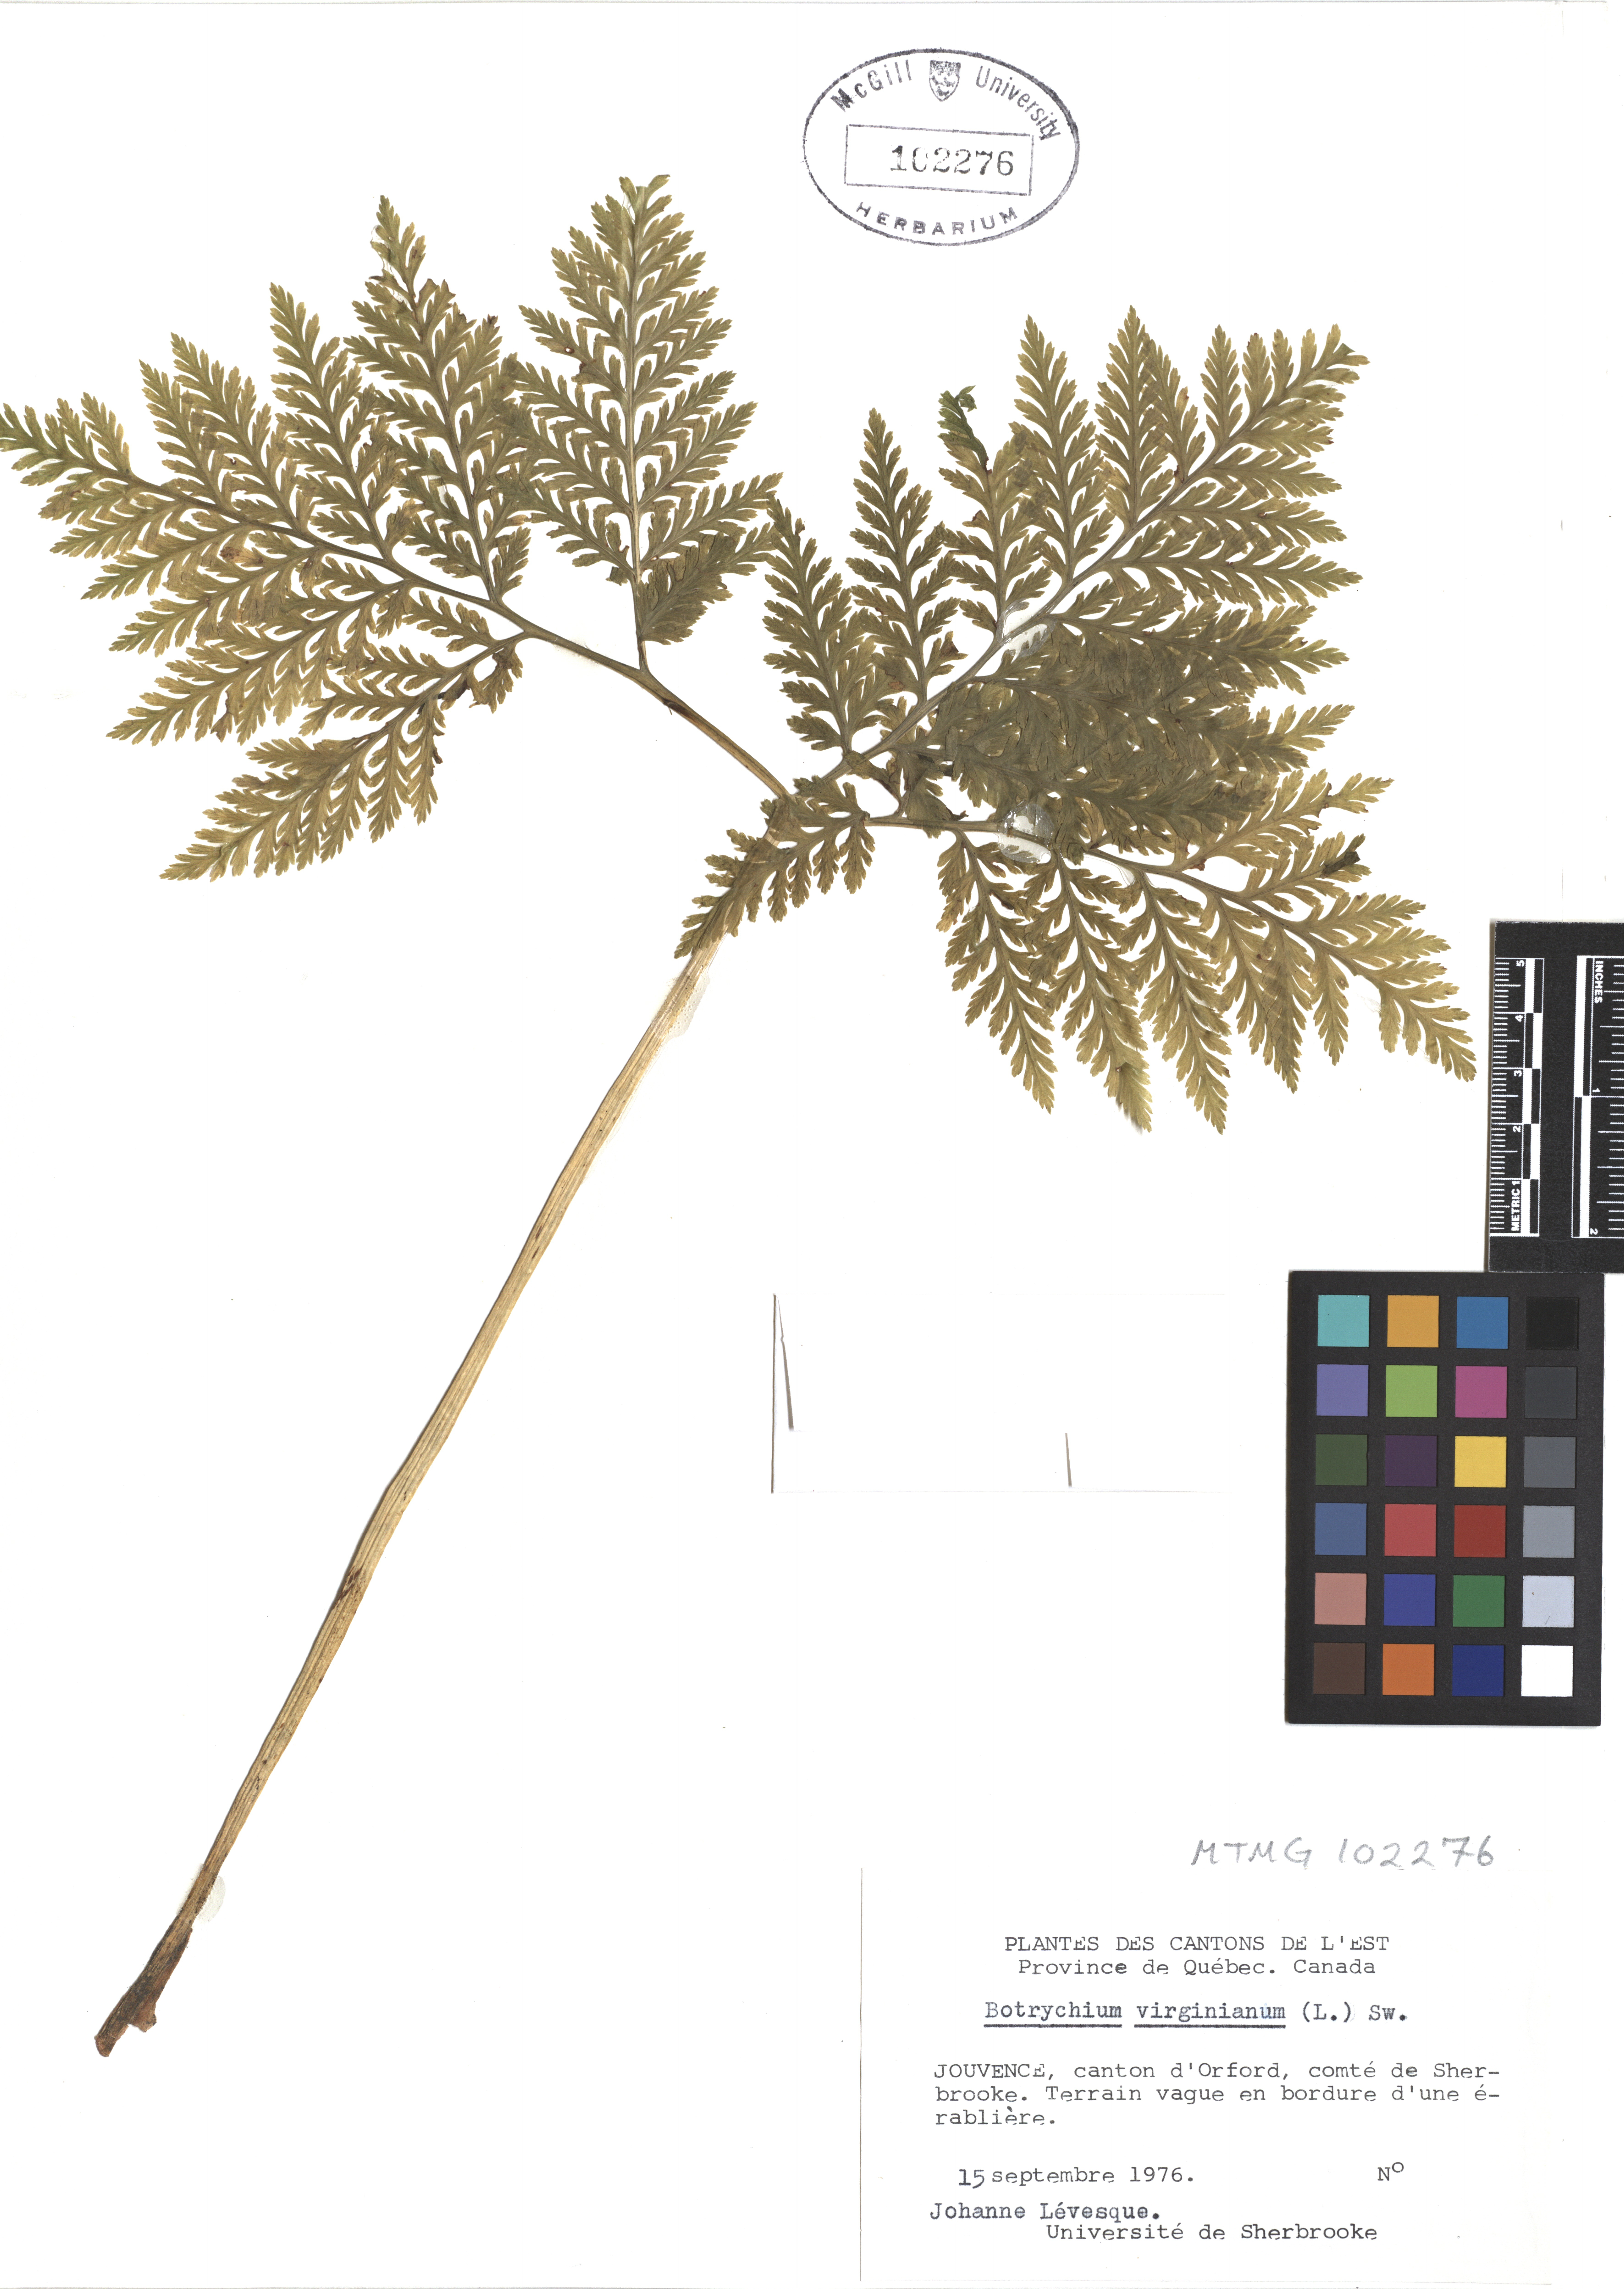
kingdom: Plantae
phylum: Tracheophyta
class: Polypodiopsida
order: Ophioglossales
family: Ophioglossaceae
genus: Botrypus
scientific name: Botrypus virginianus
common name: Common grapefern
